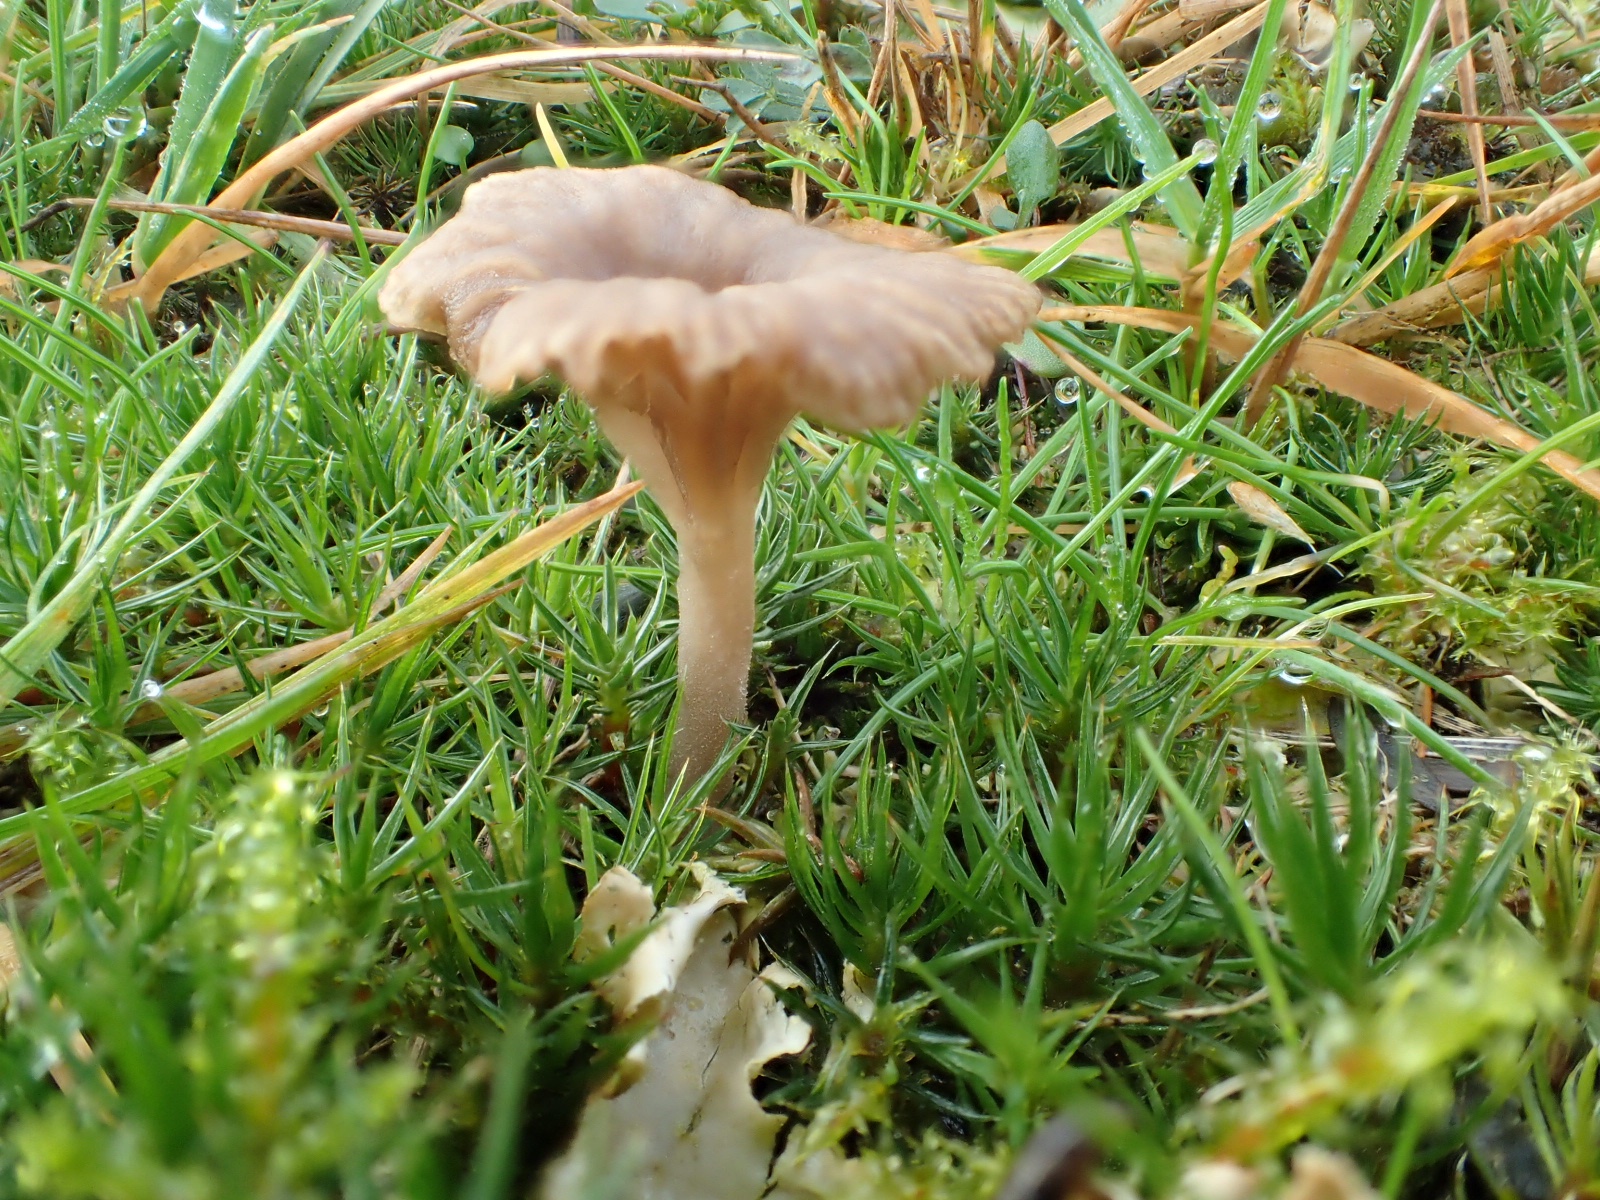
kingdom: Fungi
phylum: Basidiomycota
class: Agaricomycetes
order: Agaricales
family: Hygrophoraceae
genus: Arrhenia
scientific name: Arrhenia peltigerina
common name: skjoldlav-fontænehat
